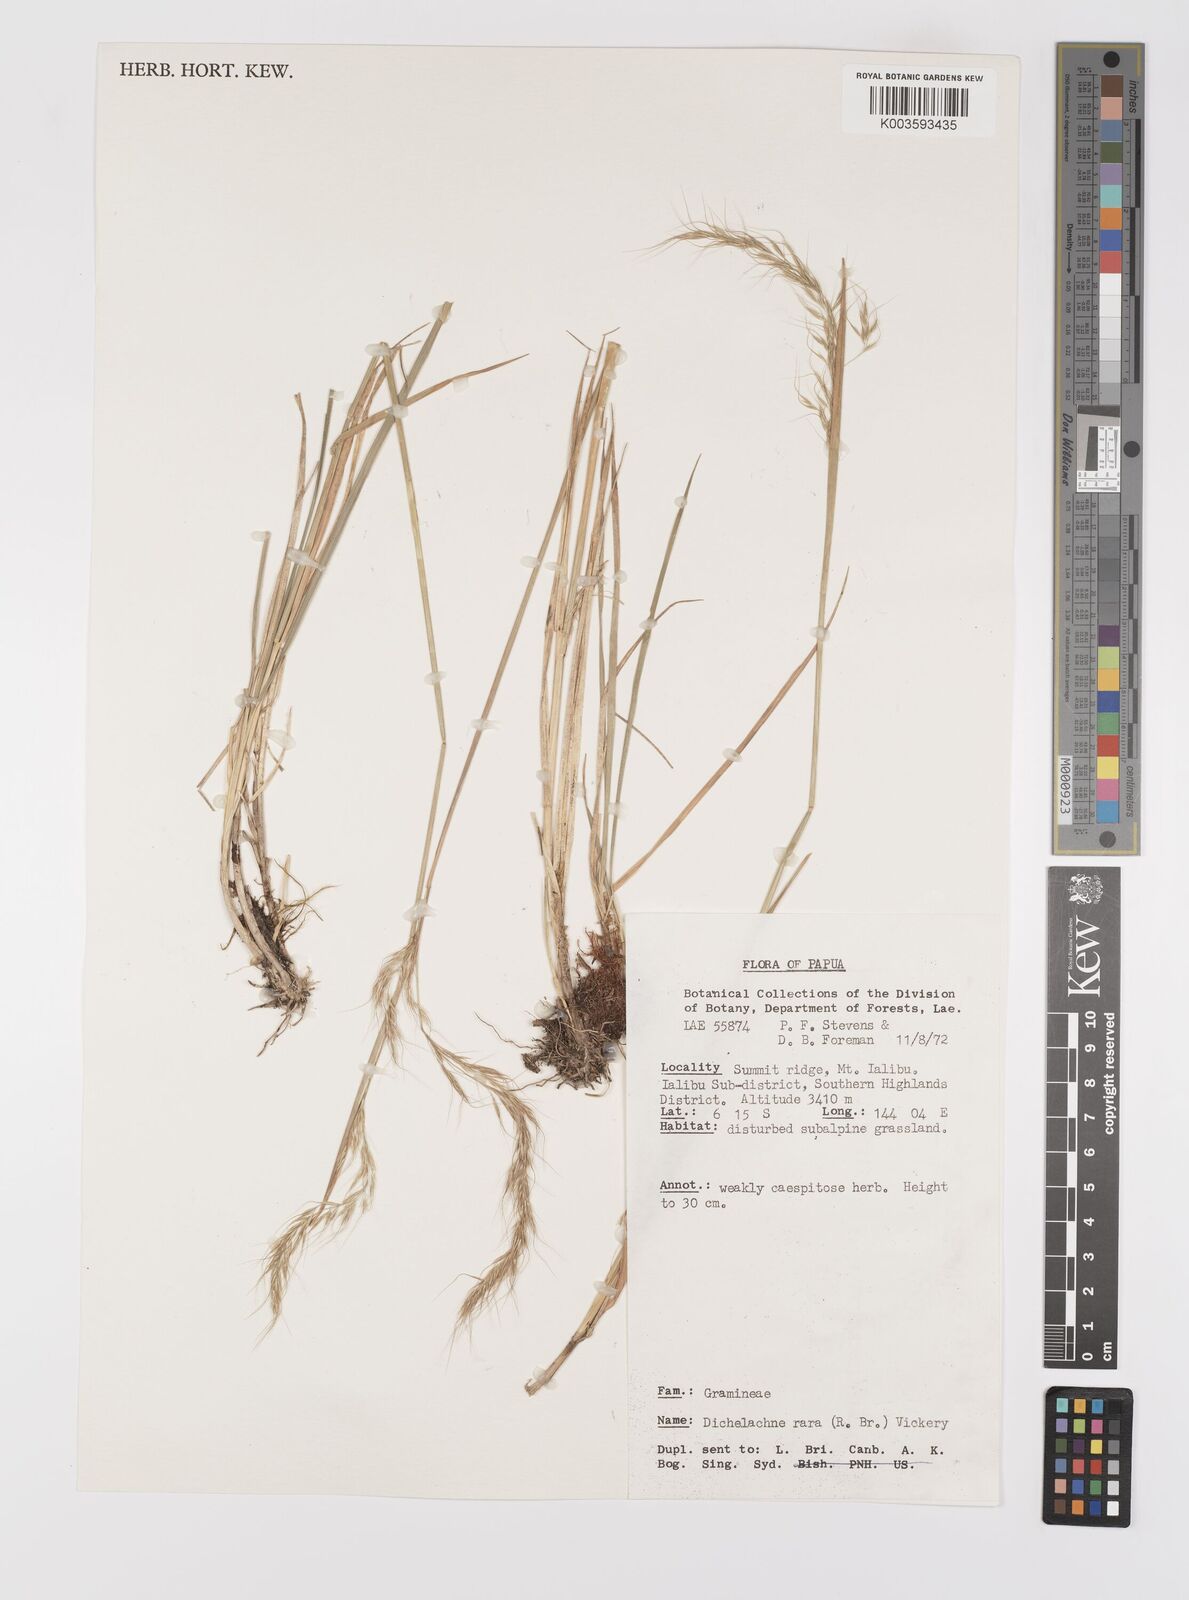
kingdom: Plantae
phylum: Tracheophyta
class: Liliopsida
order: Poales
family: Poaceae
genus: Dichelachne
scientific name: Dichelachne rara
